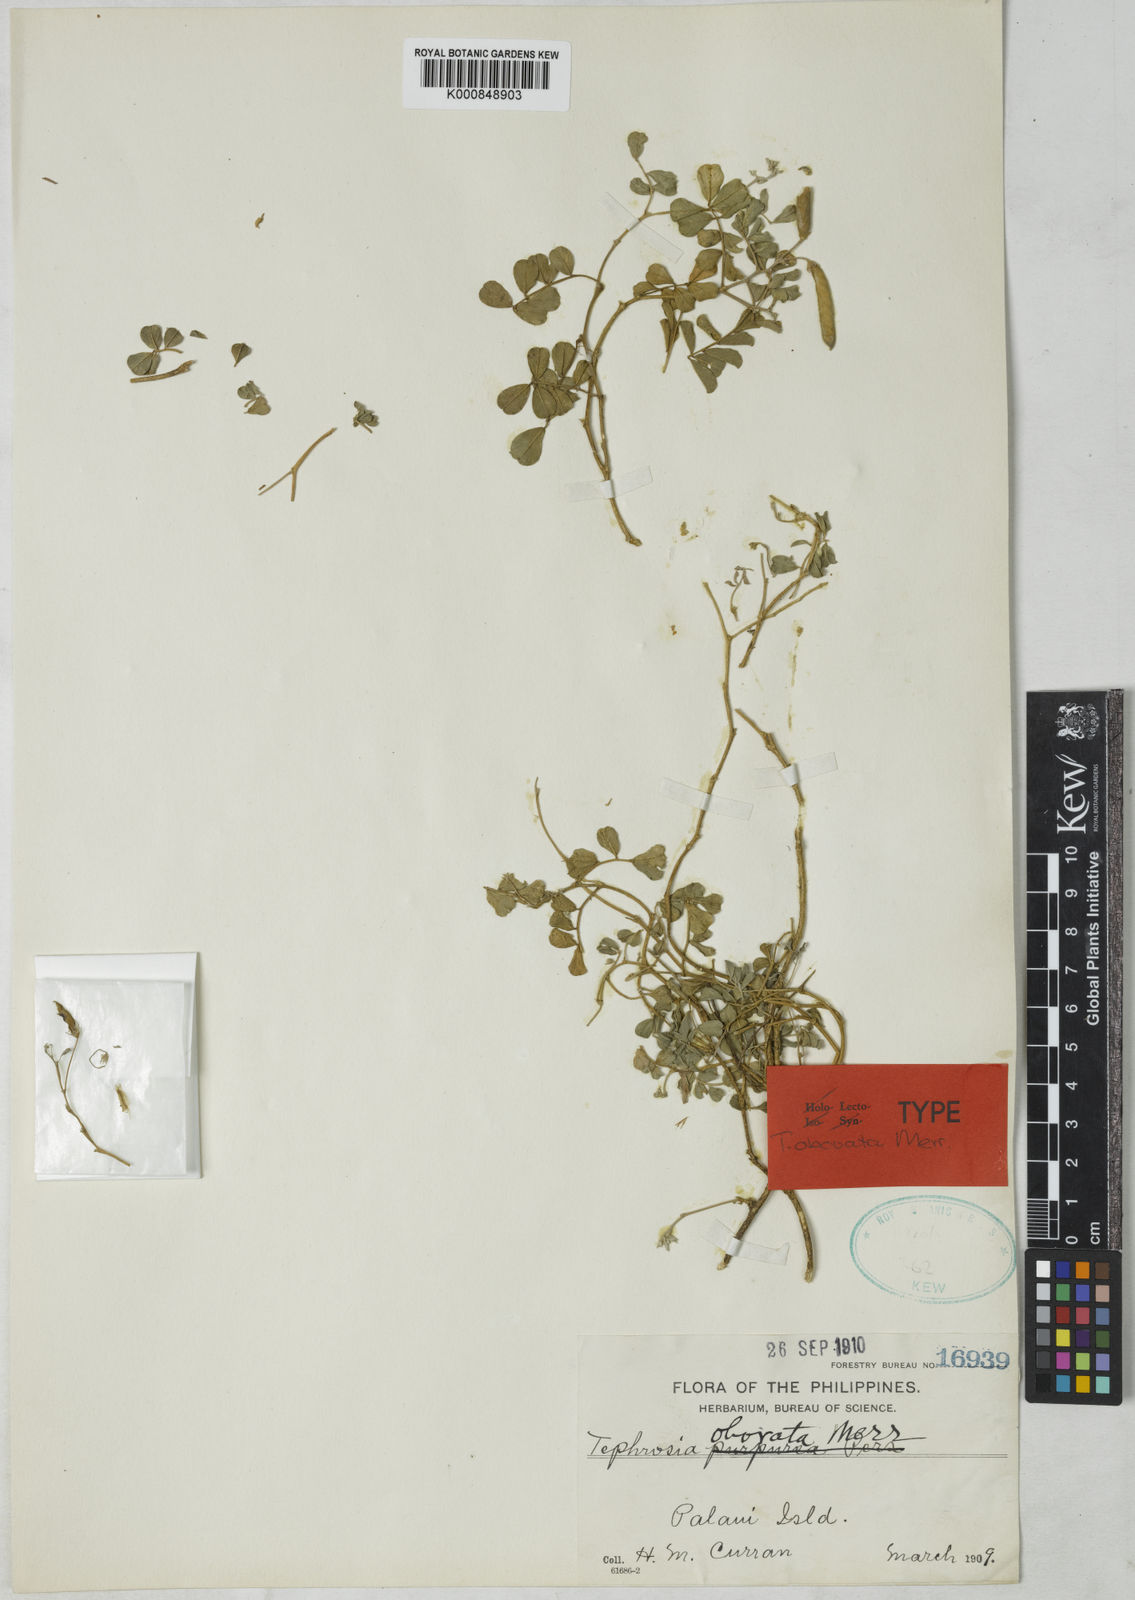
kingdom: Plantae
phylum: Tracheophyta
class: Magnoliopsida
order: Fabales
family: Fabaceae
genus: Tephrosia
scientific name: Tephrosia obovata
